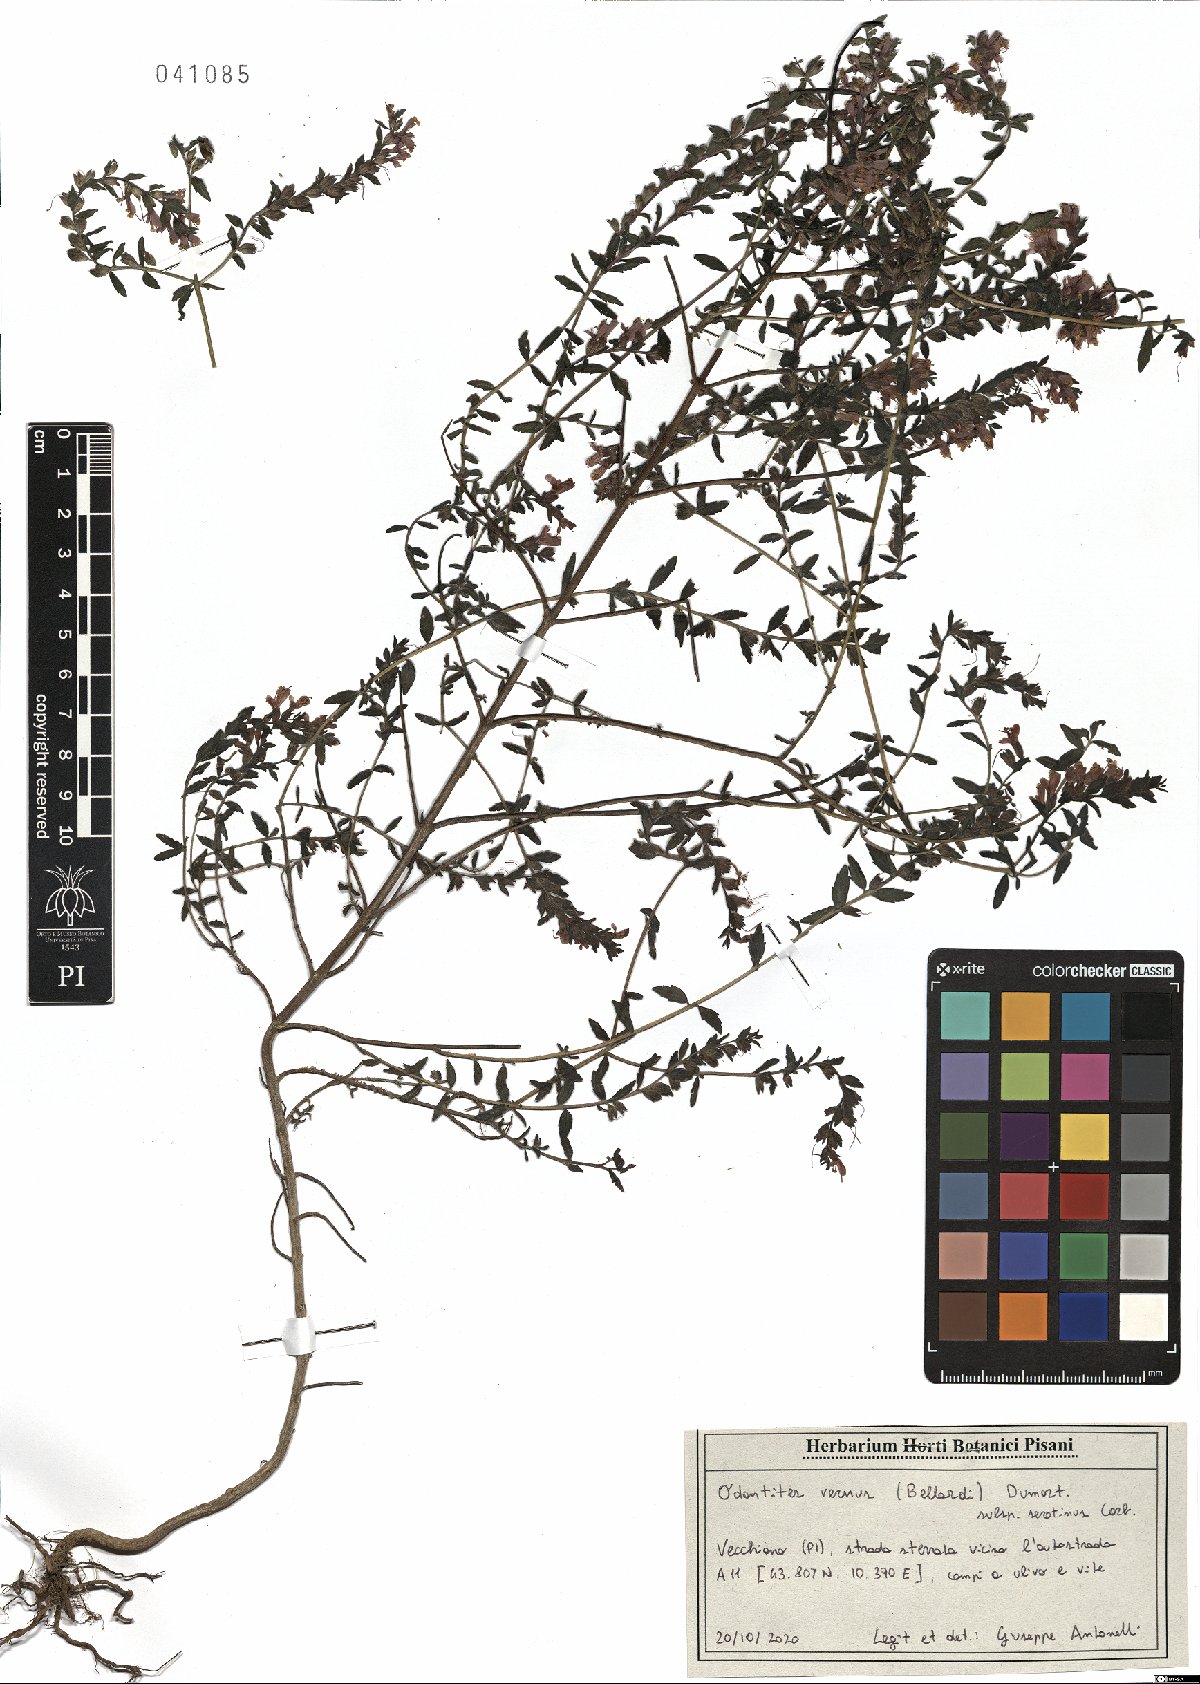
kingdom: Plantae
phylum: Tracheophyta
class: Magnoliopsida
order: Lamiales
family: Orobanchaceae
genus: Odontites
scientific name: Odontites vulgaris
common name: Broomrape
